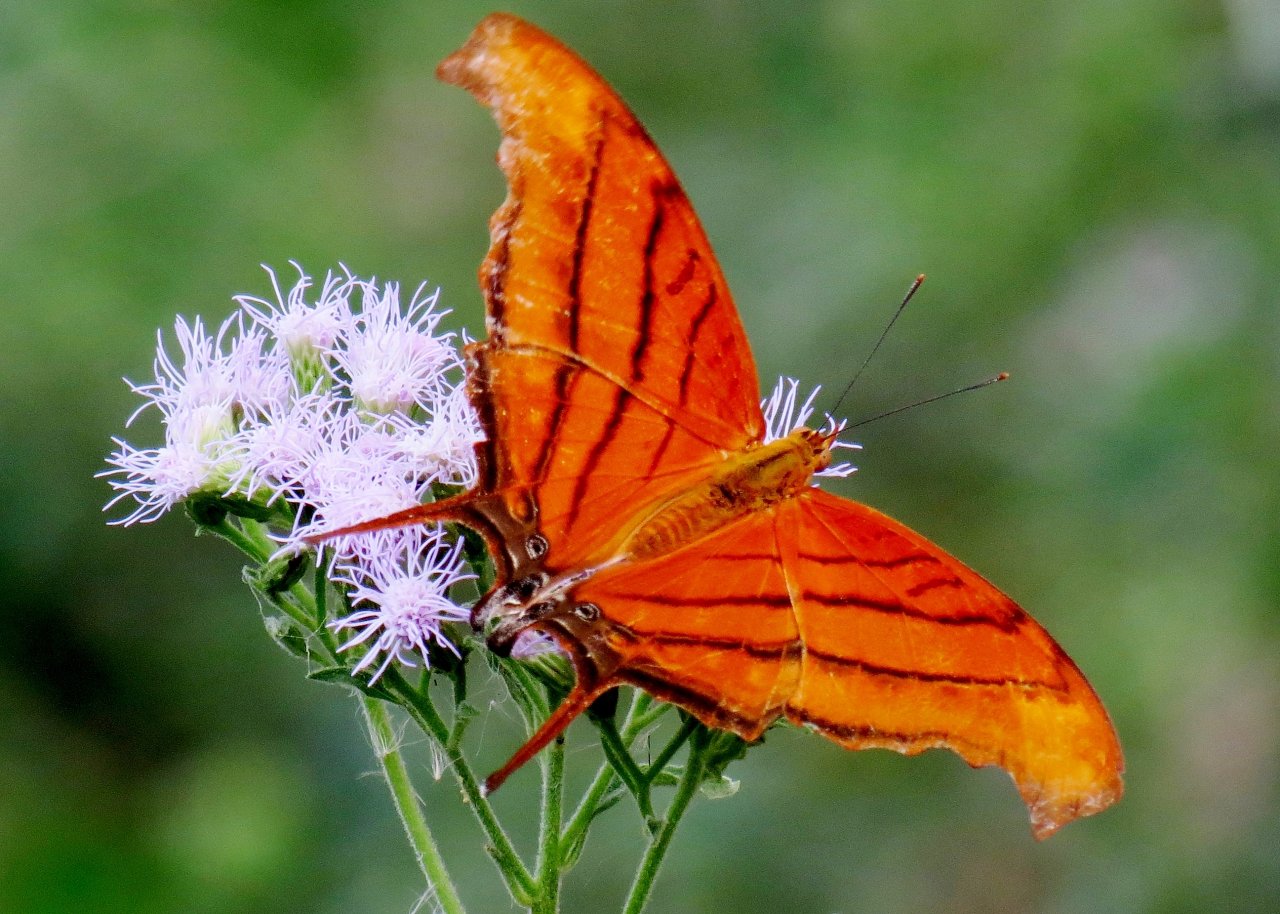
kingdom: Animalia
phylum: Arthropoda
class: Insecta
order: Lepidoptera
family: Nymphalidae
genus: Marpesia
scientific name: Marpesia petreus
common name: Ruddy Daggerwing
